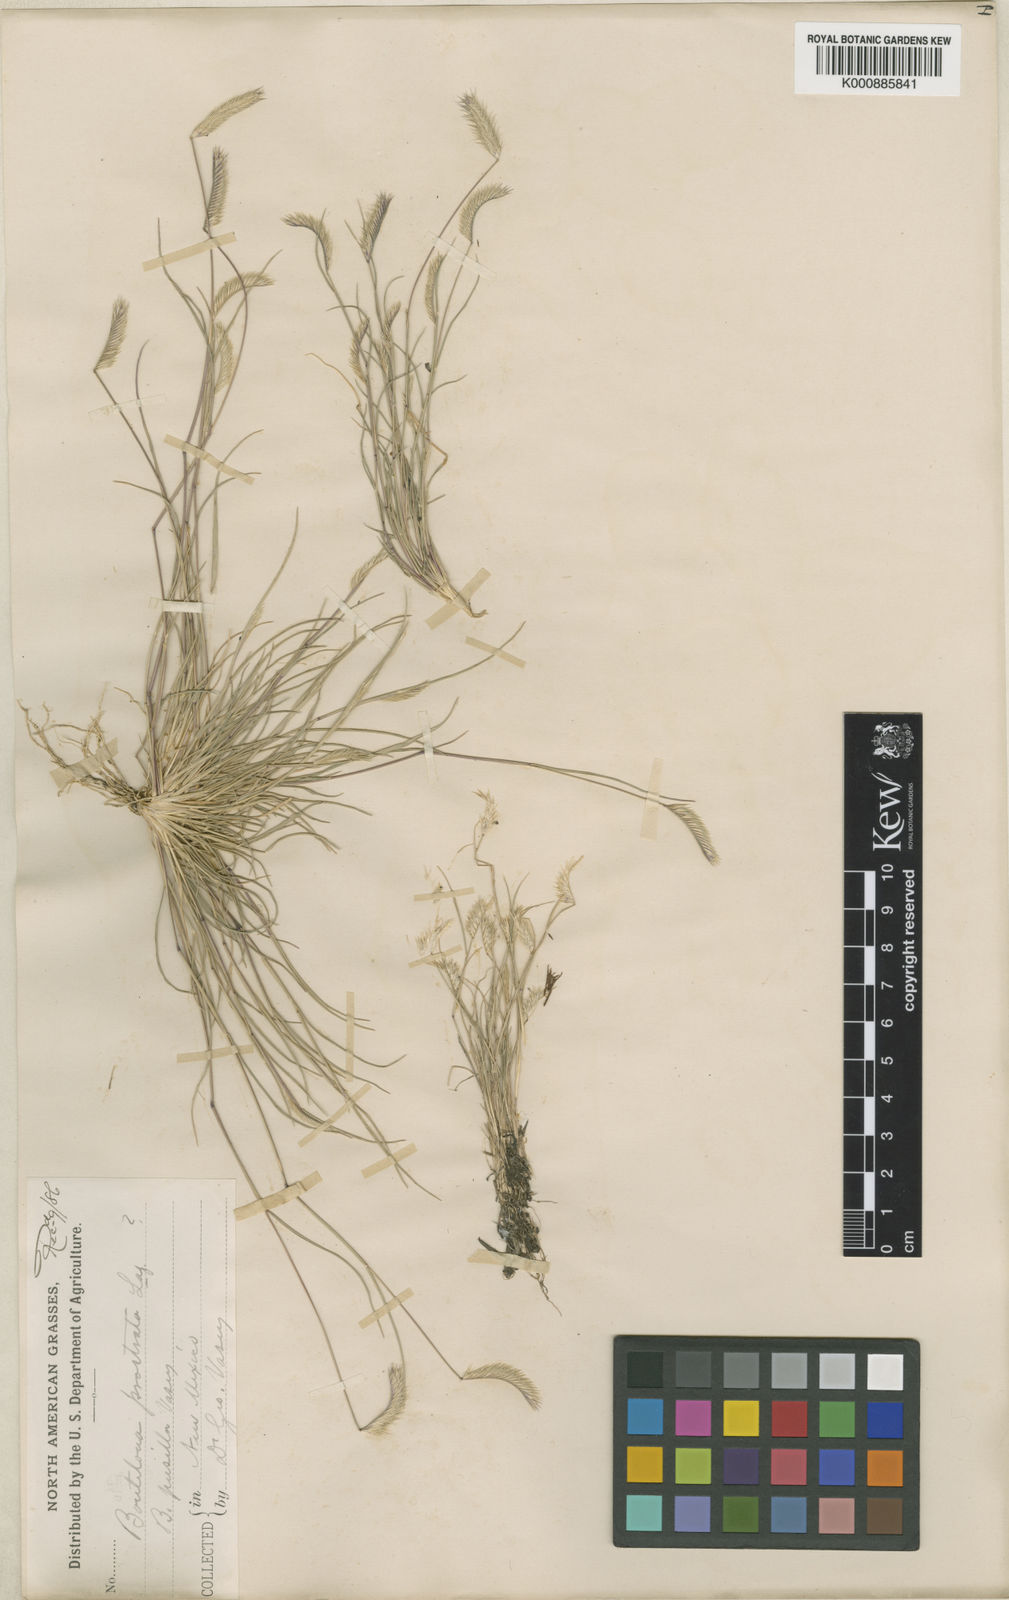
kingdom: Plantae
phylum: Tracheophyta
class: Liliopsida
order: Poales
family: Poaceae
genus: Bouteloua
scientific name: Bouteloua simplex
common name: Mat grama
